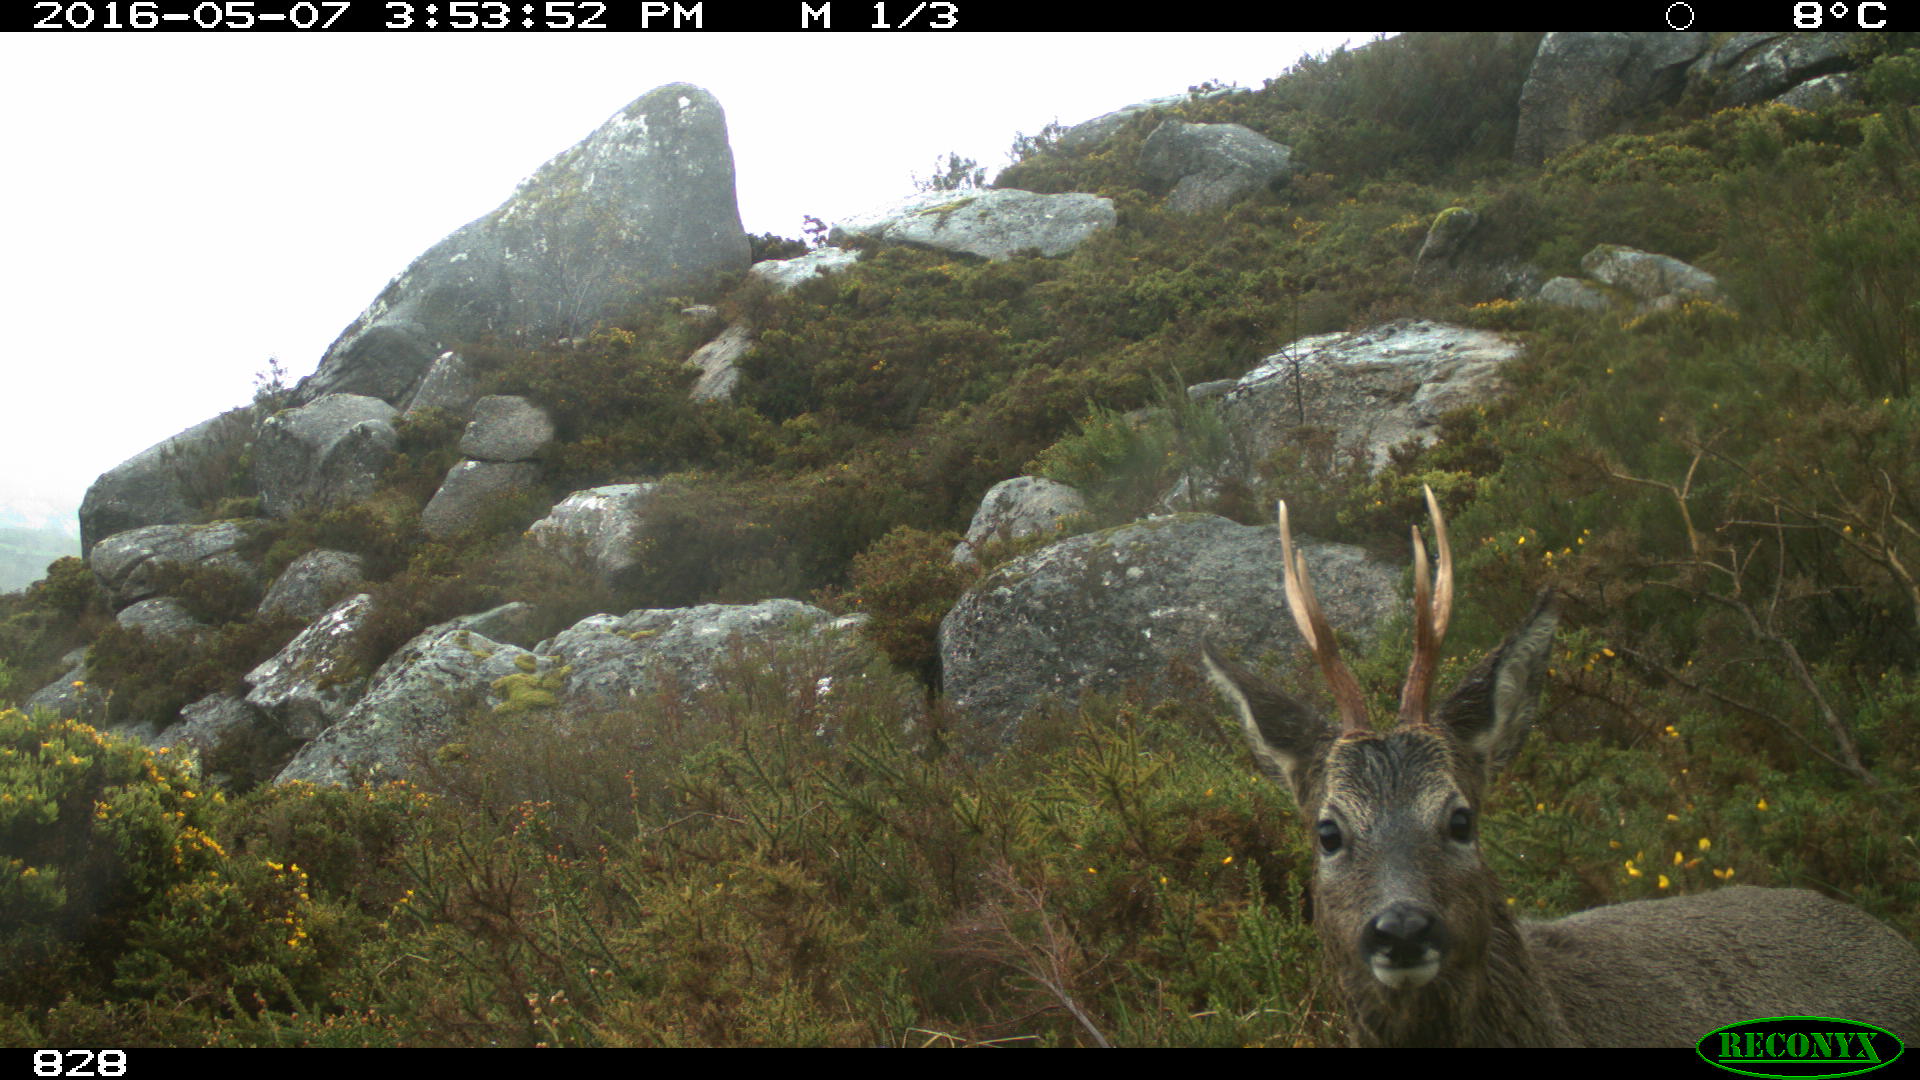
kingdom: Animalia
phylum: Chordata
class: Mammalia
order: Artiodactyla
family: Cervidae
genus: Capreolus
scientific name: Capreolus capreolus
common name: Western roe deer
